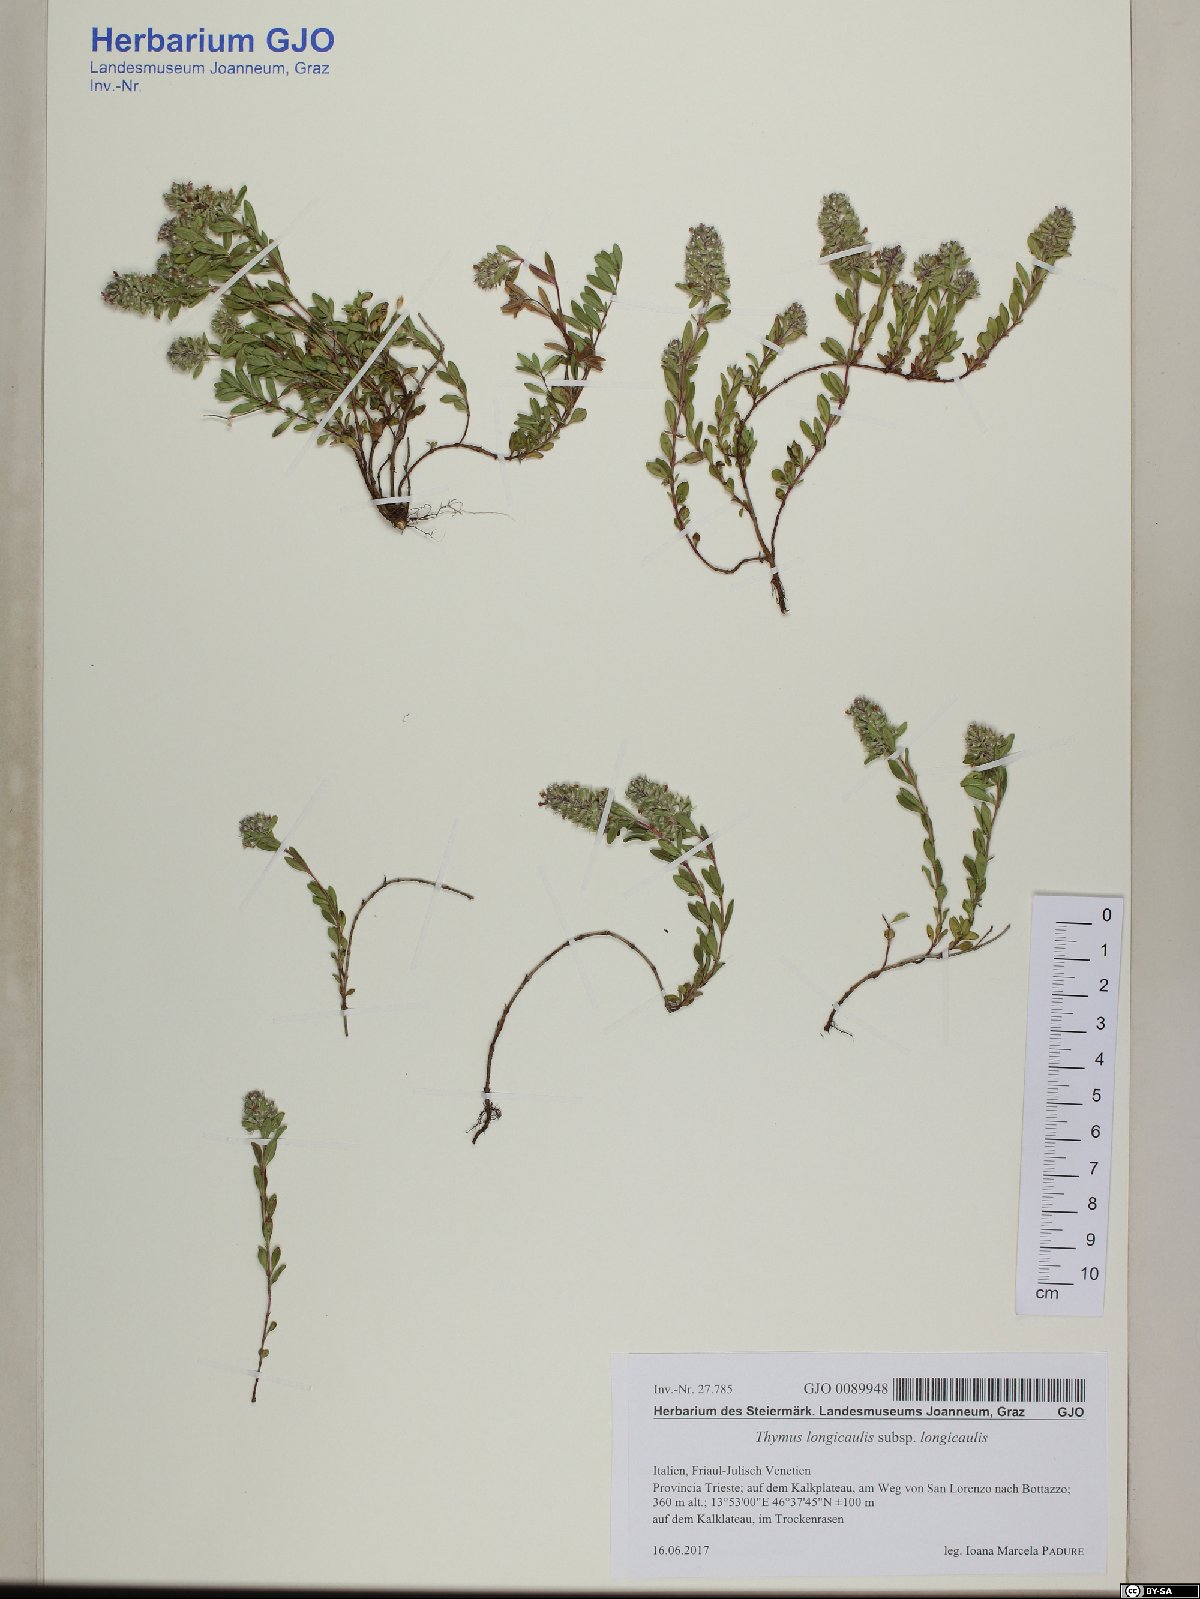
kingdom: Plantae
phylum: Tracheophyta
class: Magnoliopsida
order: Lamiales
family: Lamiaceae
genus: Thymus
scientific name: Thymus longicaulis
